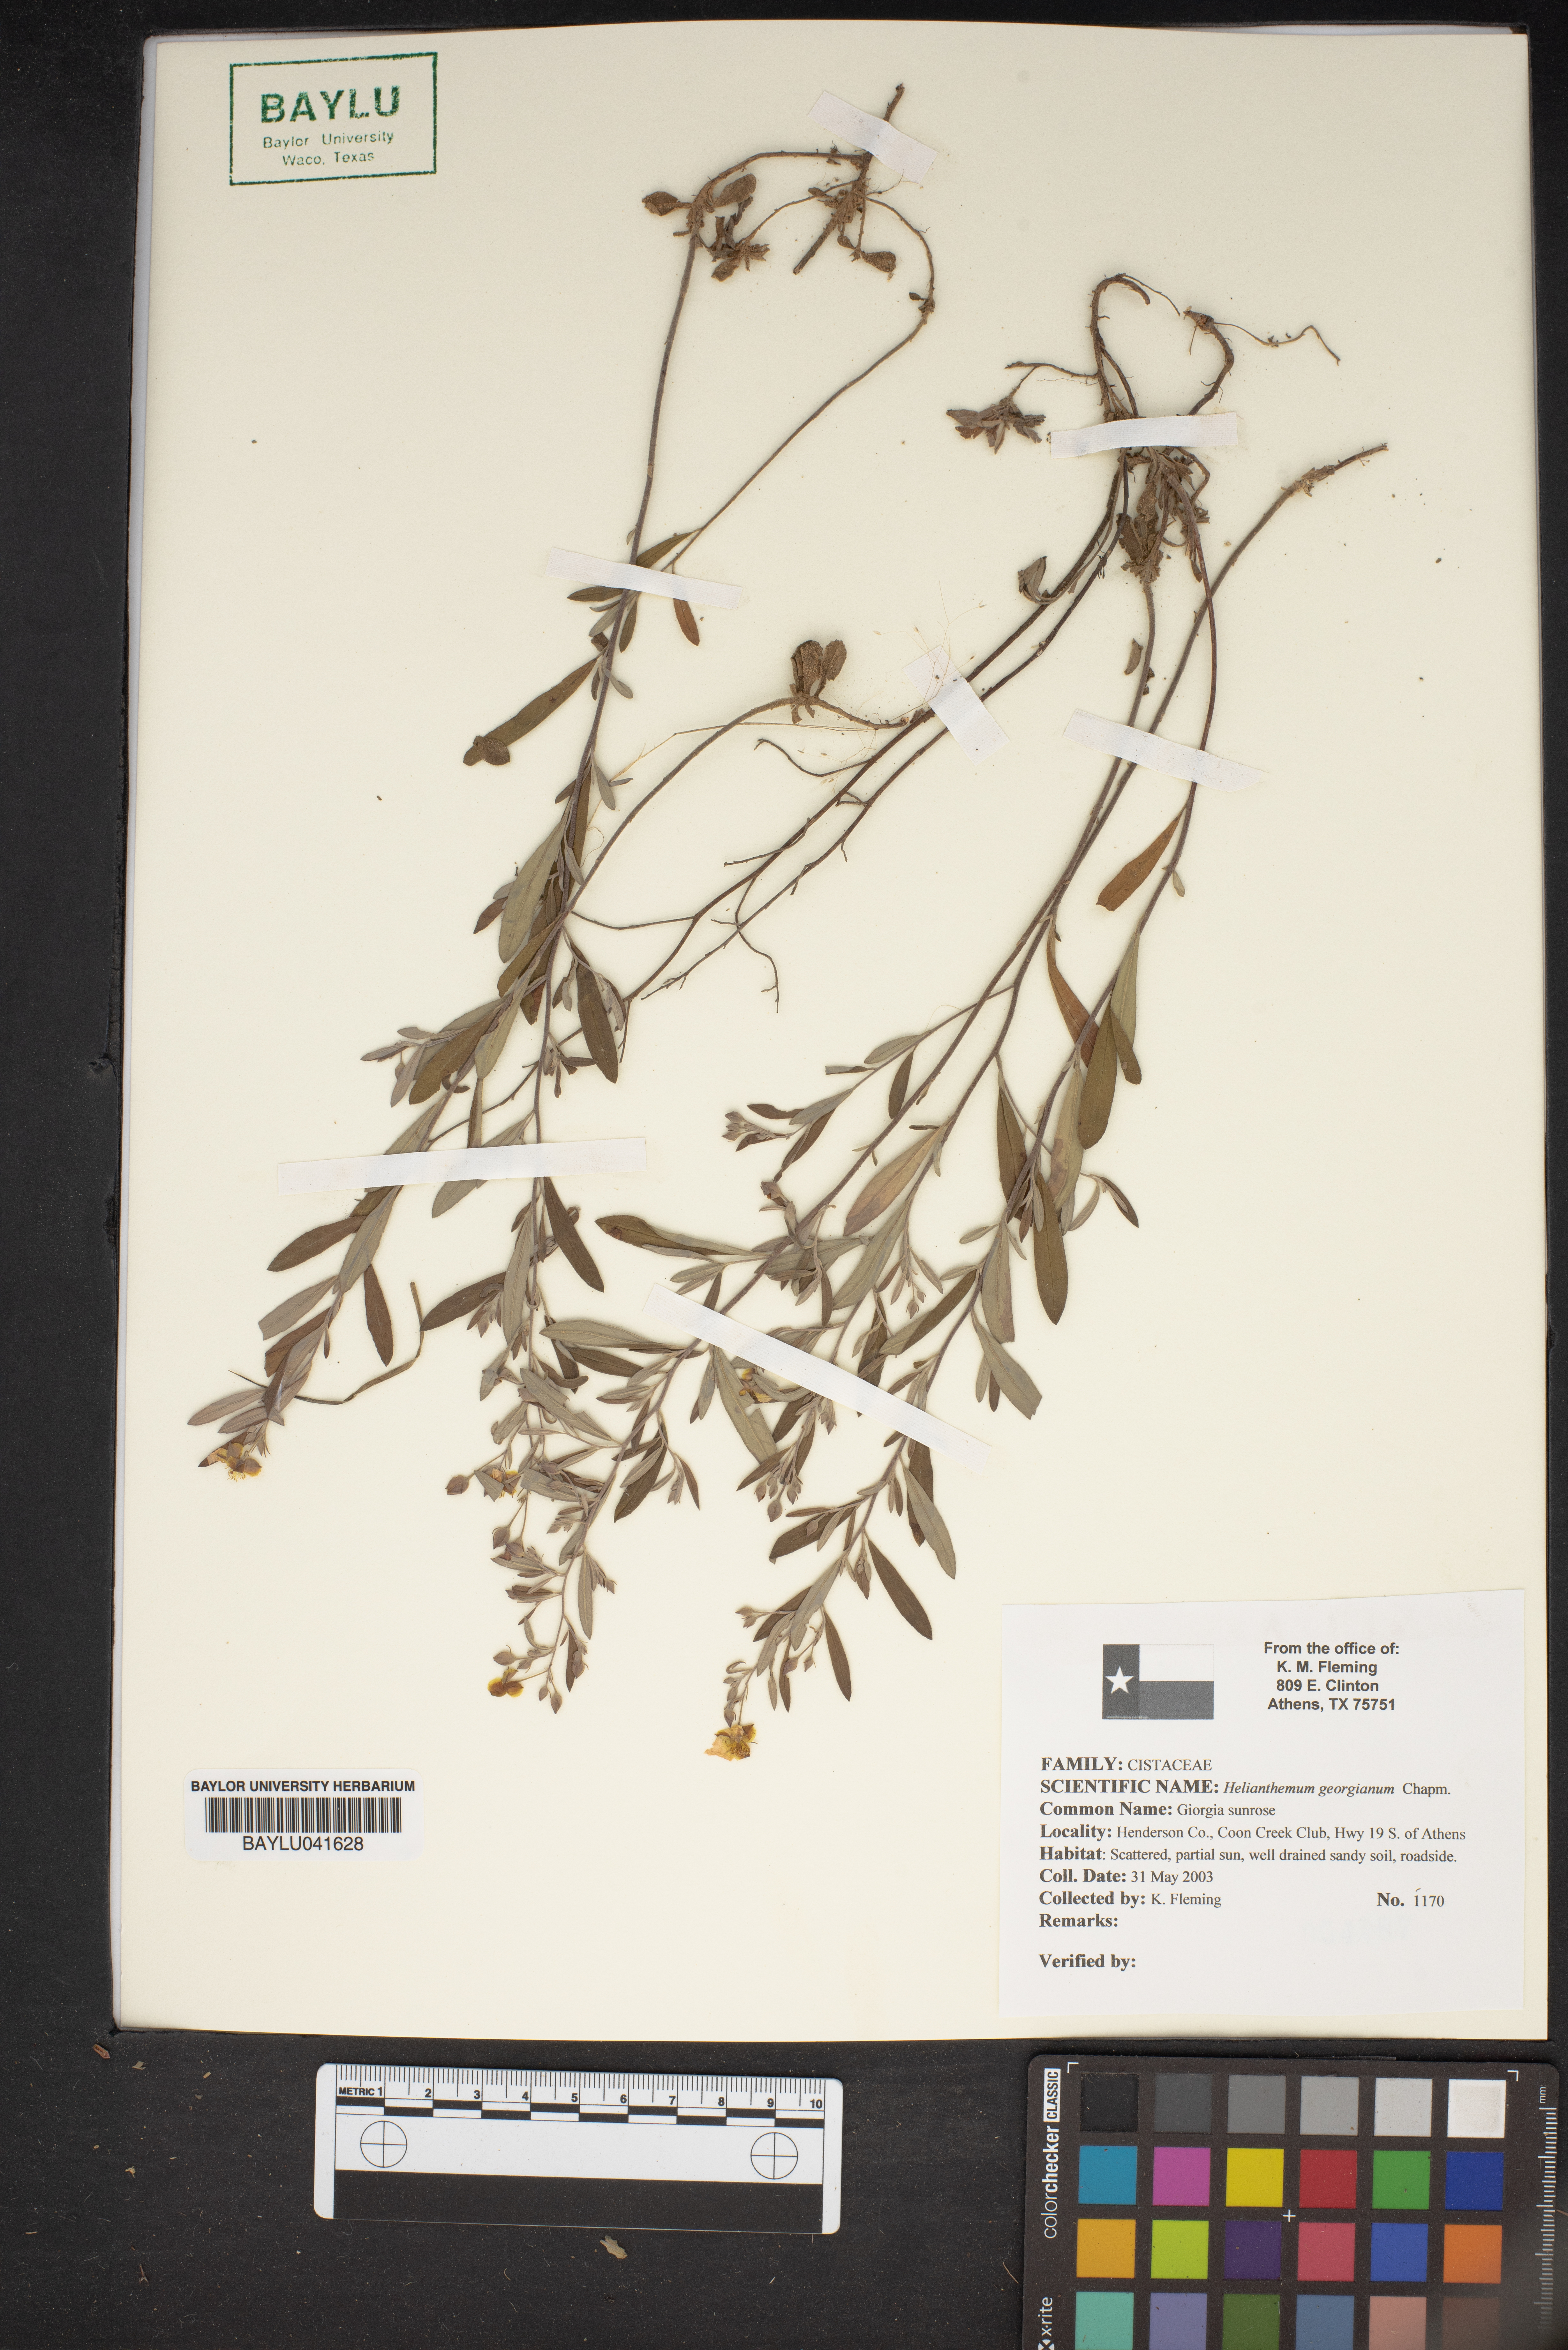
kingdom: Plantae
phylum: Tracheophyta
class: Magnoliopsida
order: Malvales
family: Cistaceae
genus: Crocanthemum
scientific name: Crocanthemum georgianum
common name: Georgia frostweed
